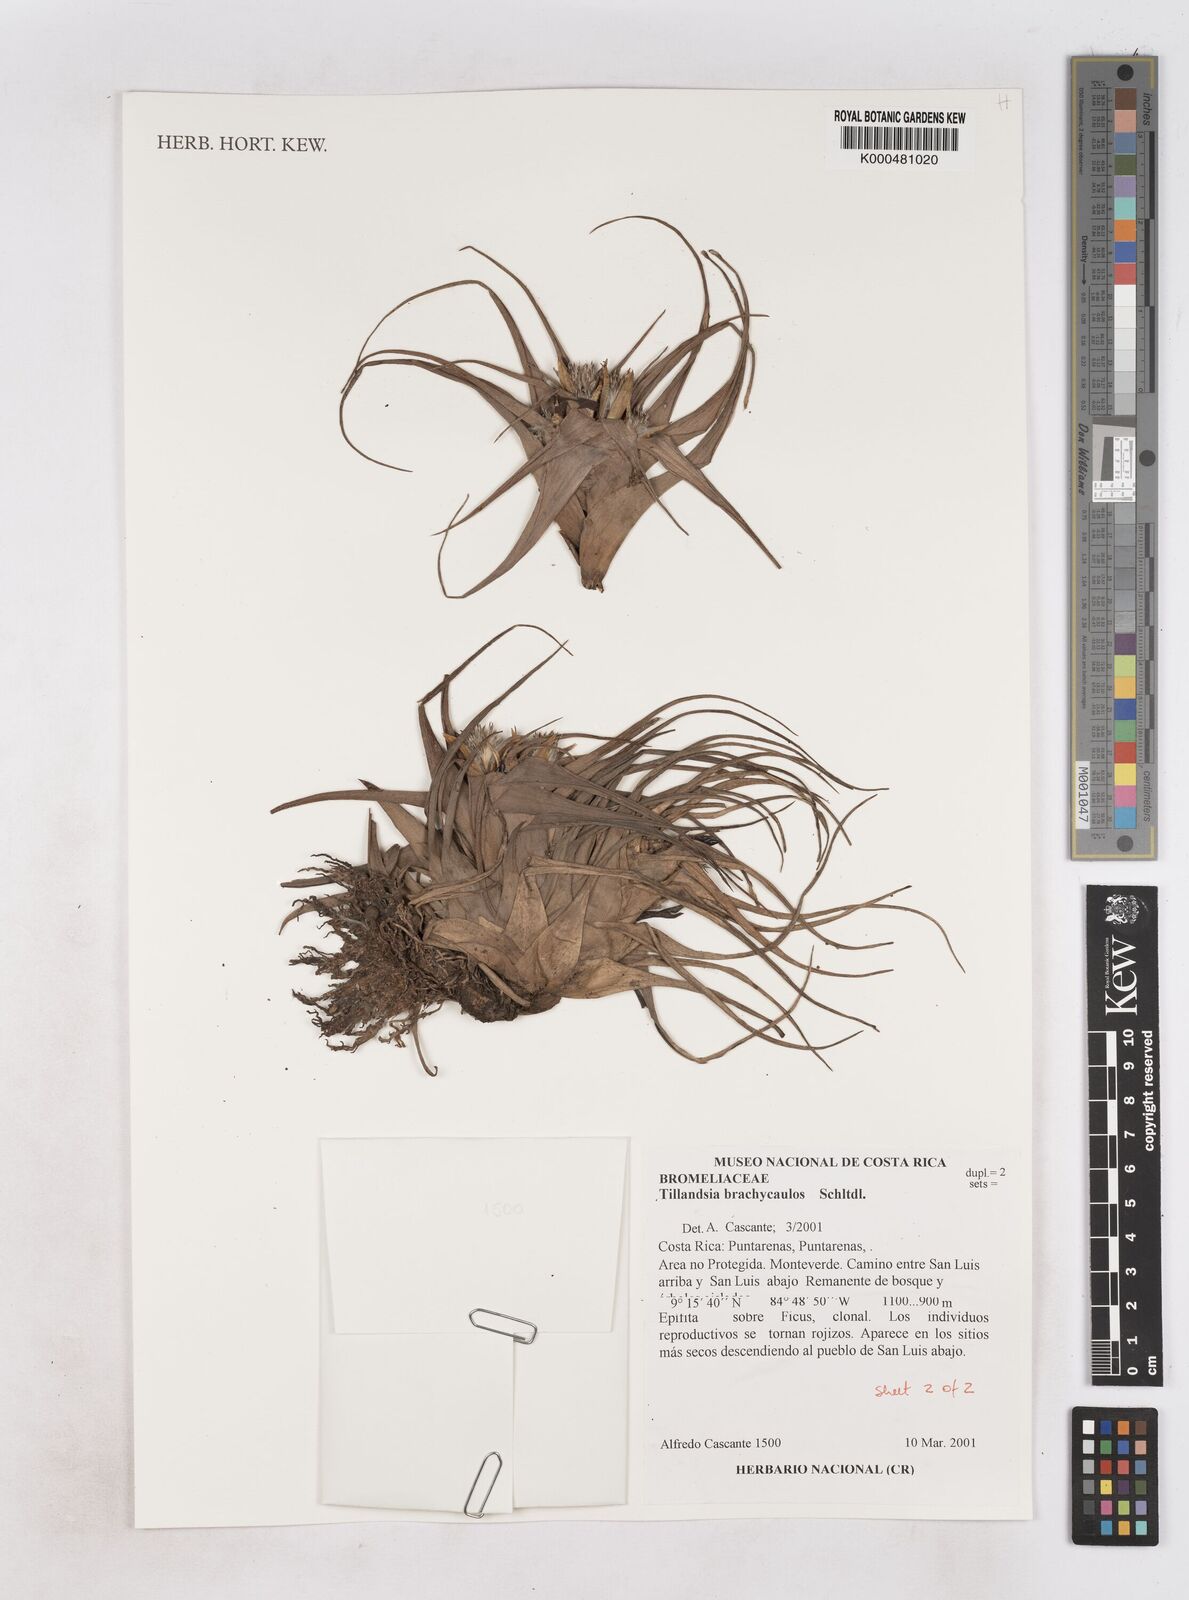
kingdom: Plantae
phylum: Tracheophyta
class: Liliopsida
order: Poales
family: Bromeliaceae
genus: Tillandsia
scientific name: Tillandsia brachycaulos
